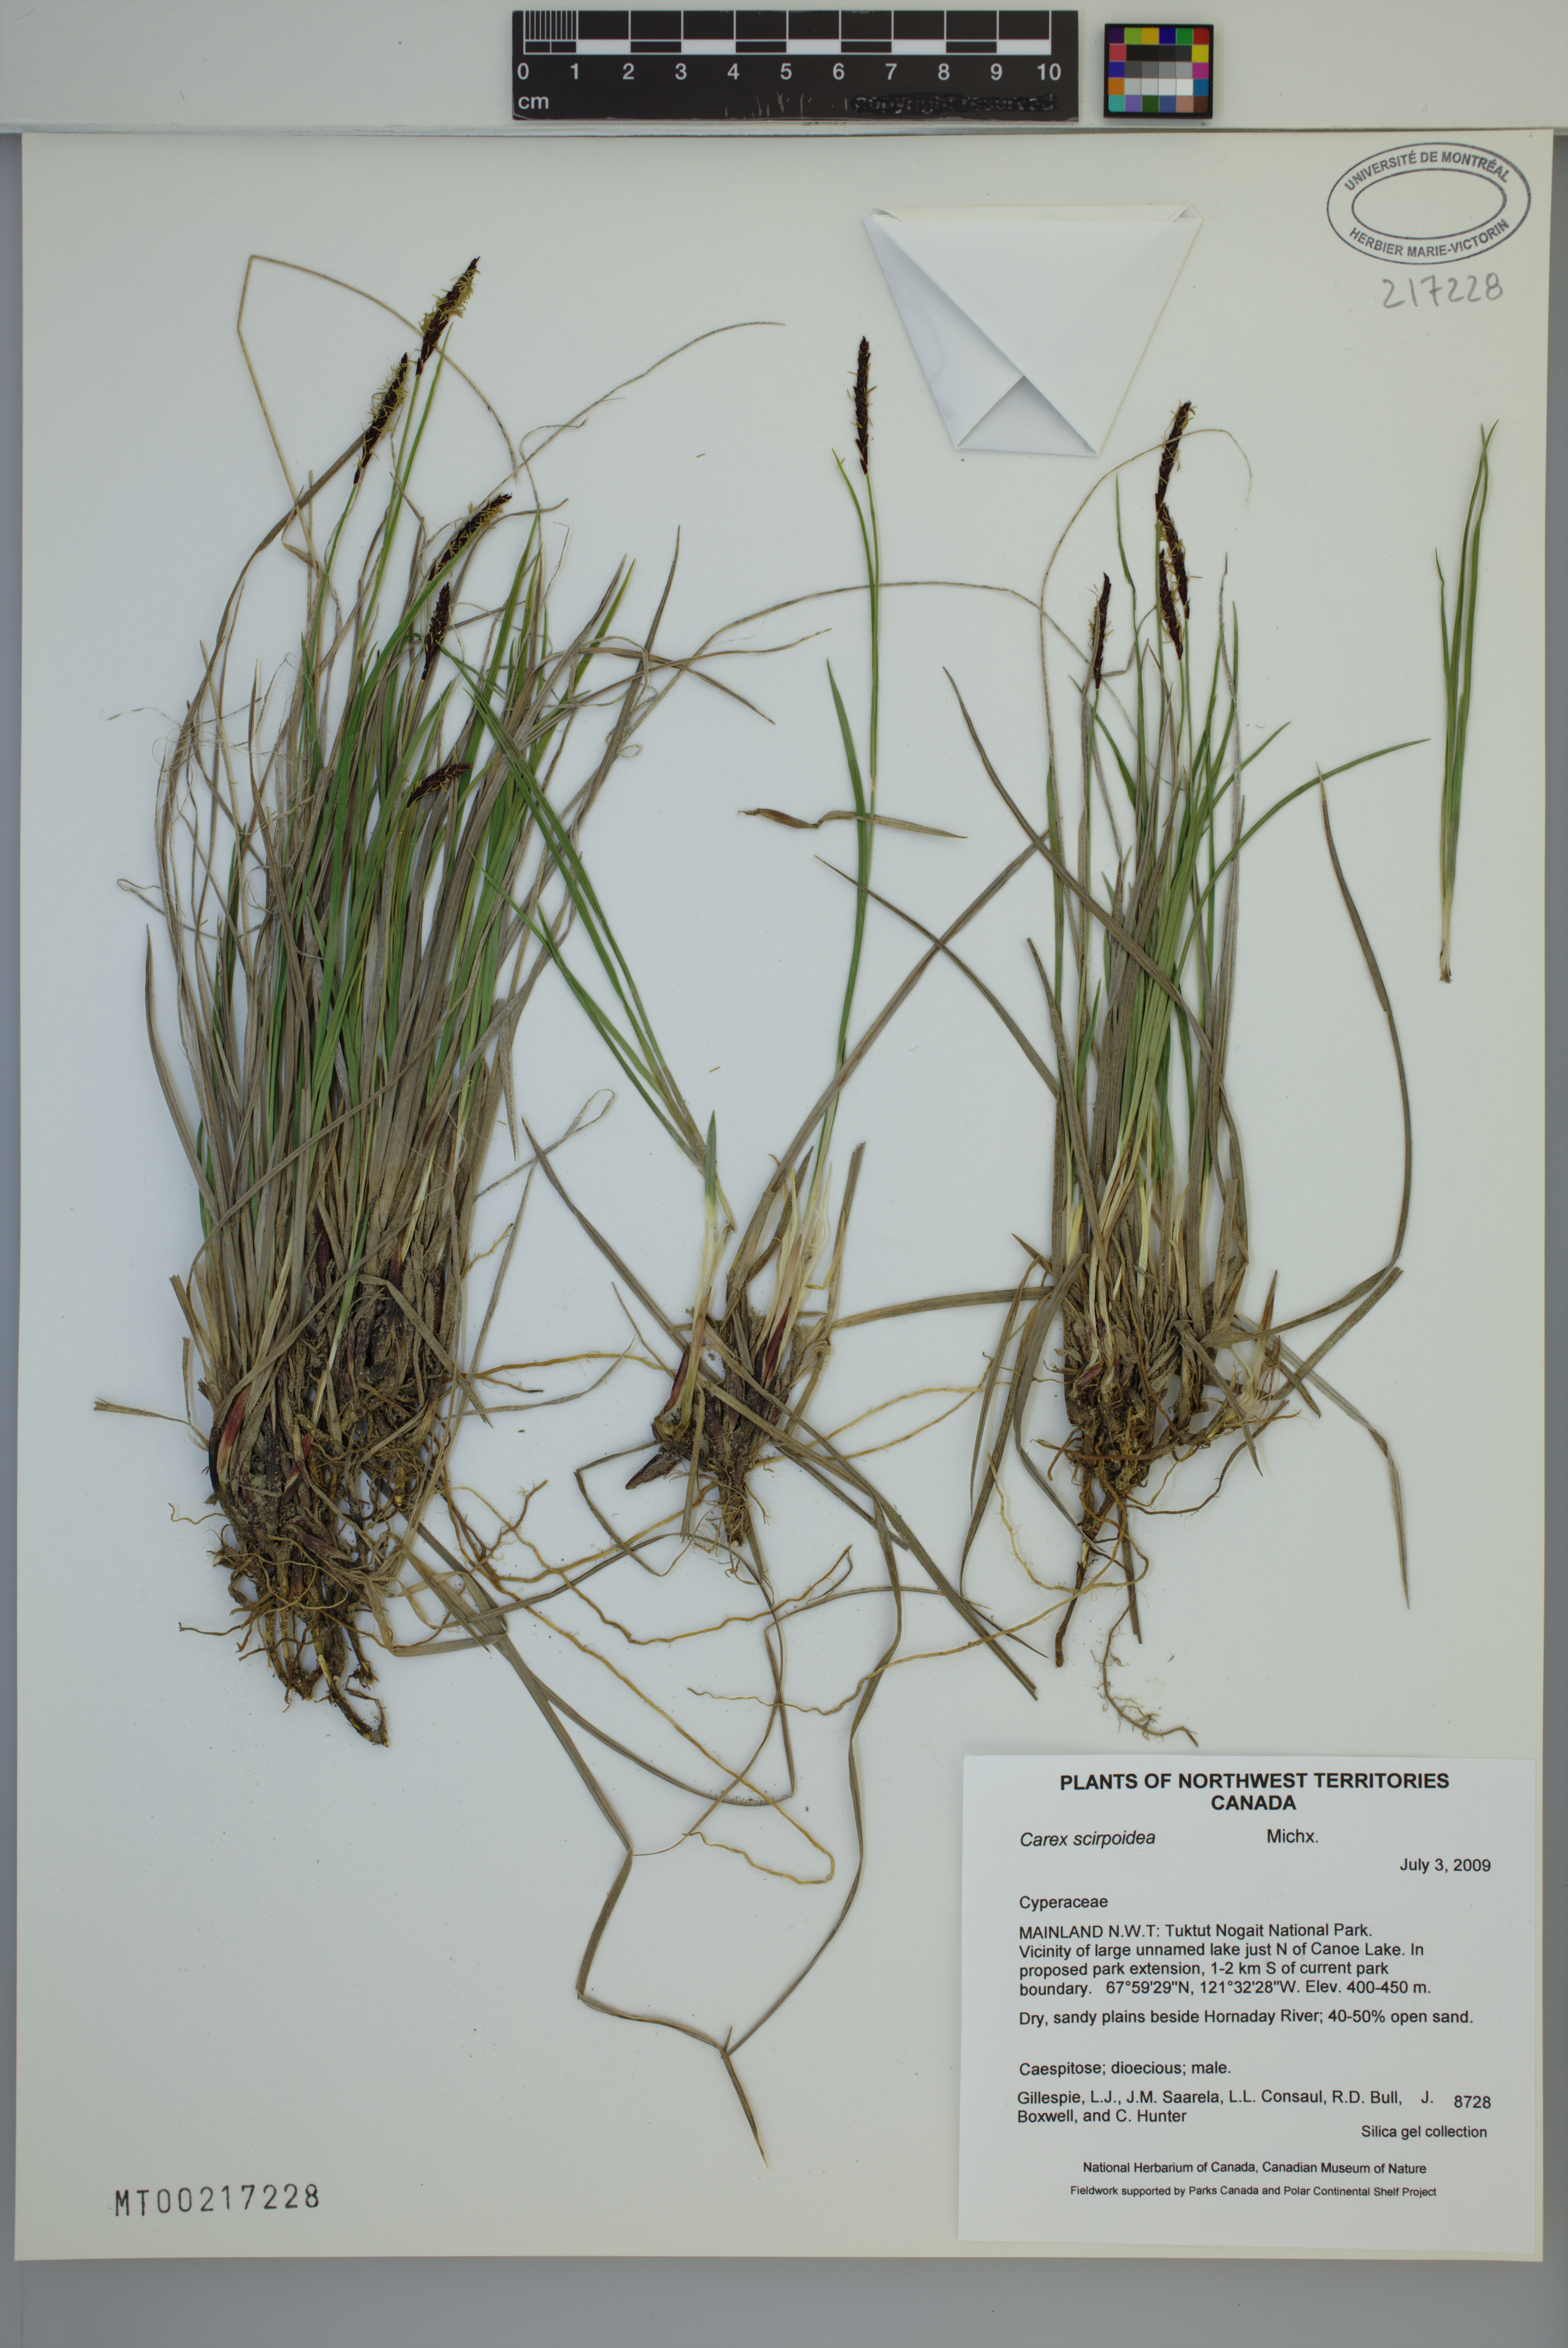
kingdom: Plantae
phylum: Tracheophyta
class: Liliopsida
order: Poales
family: Cyperaceae
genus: Carex
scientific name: Carex scirpoidea
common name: Canada single-spike sedge
